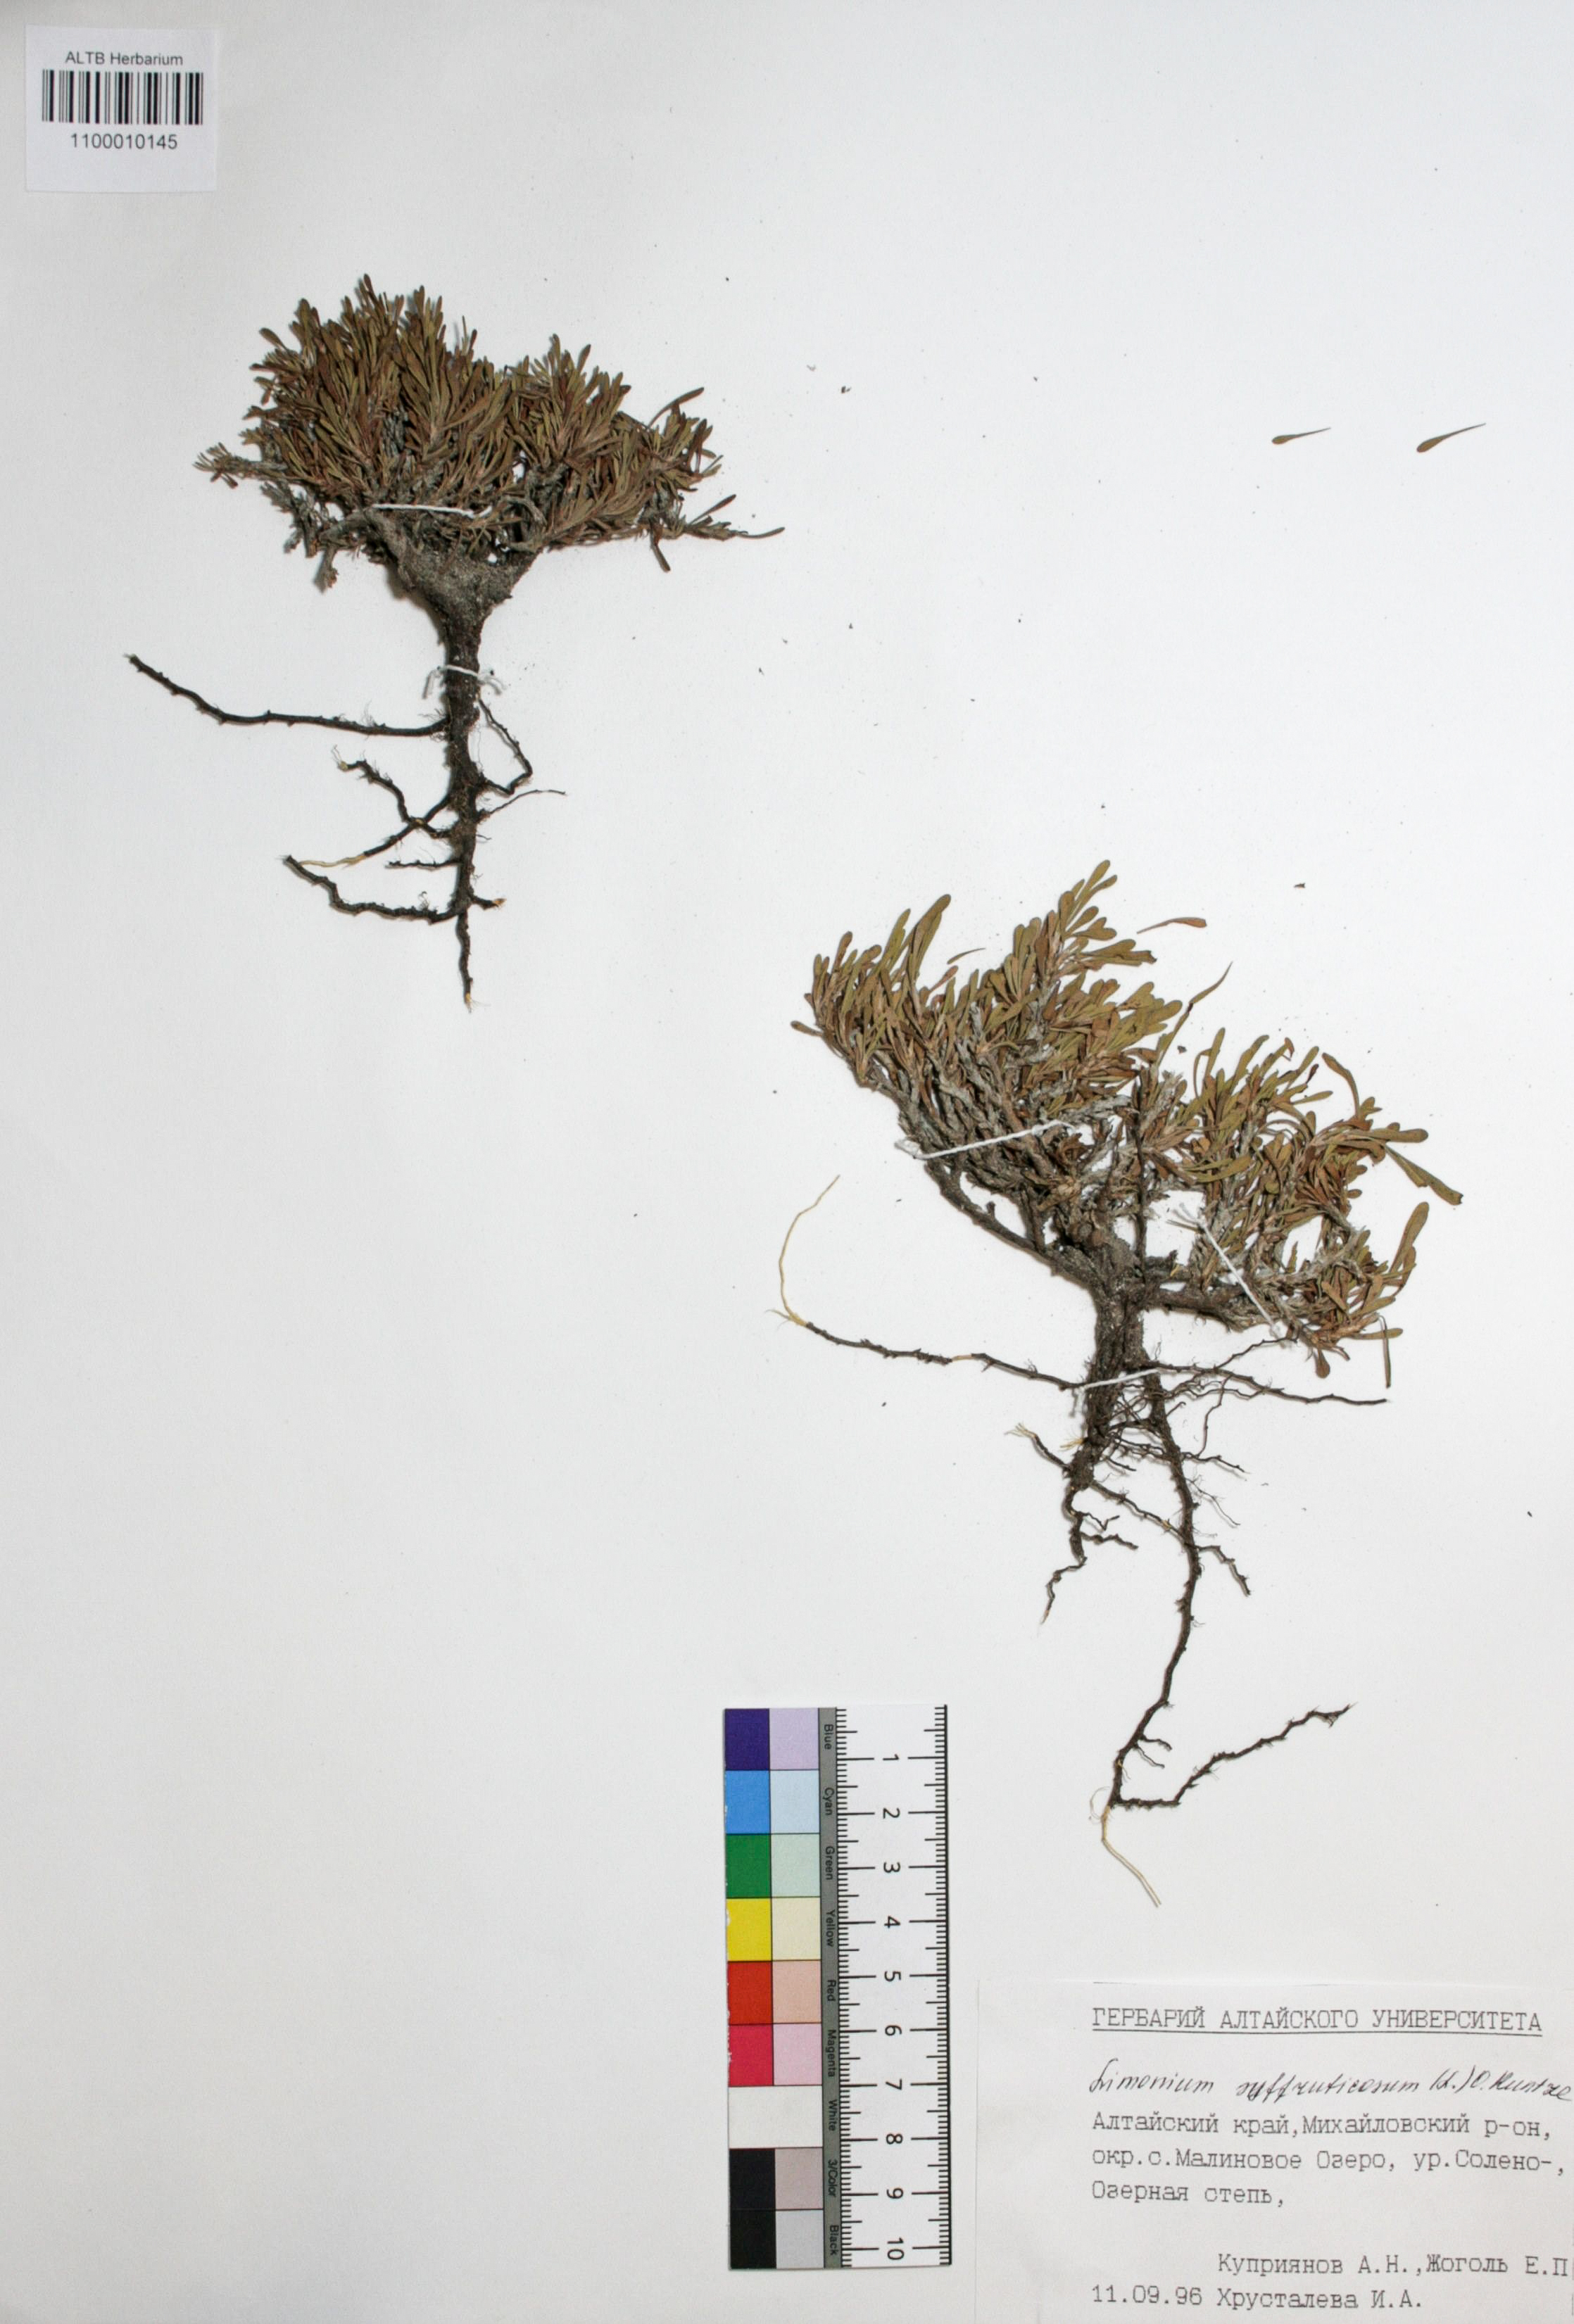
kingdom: Plantae
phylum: Tracheophyta
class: Magnoliopsida
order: Caryophyllales
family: Plumbaginaceae
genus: Limonium
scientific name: Limonium suffruticosum
